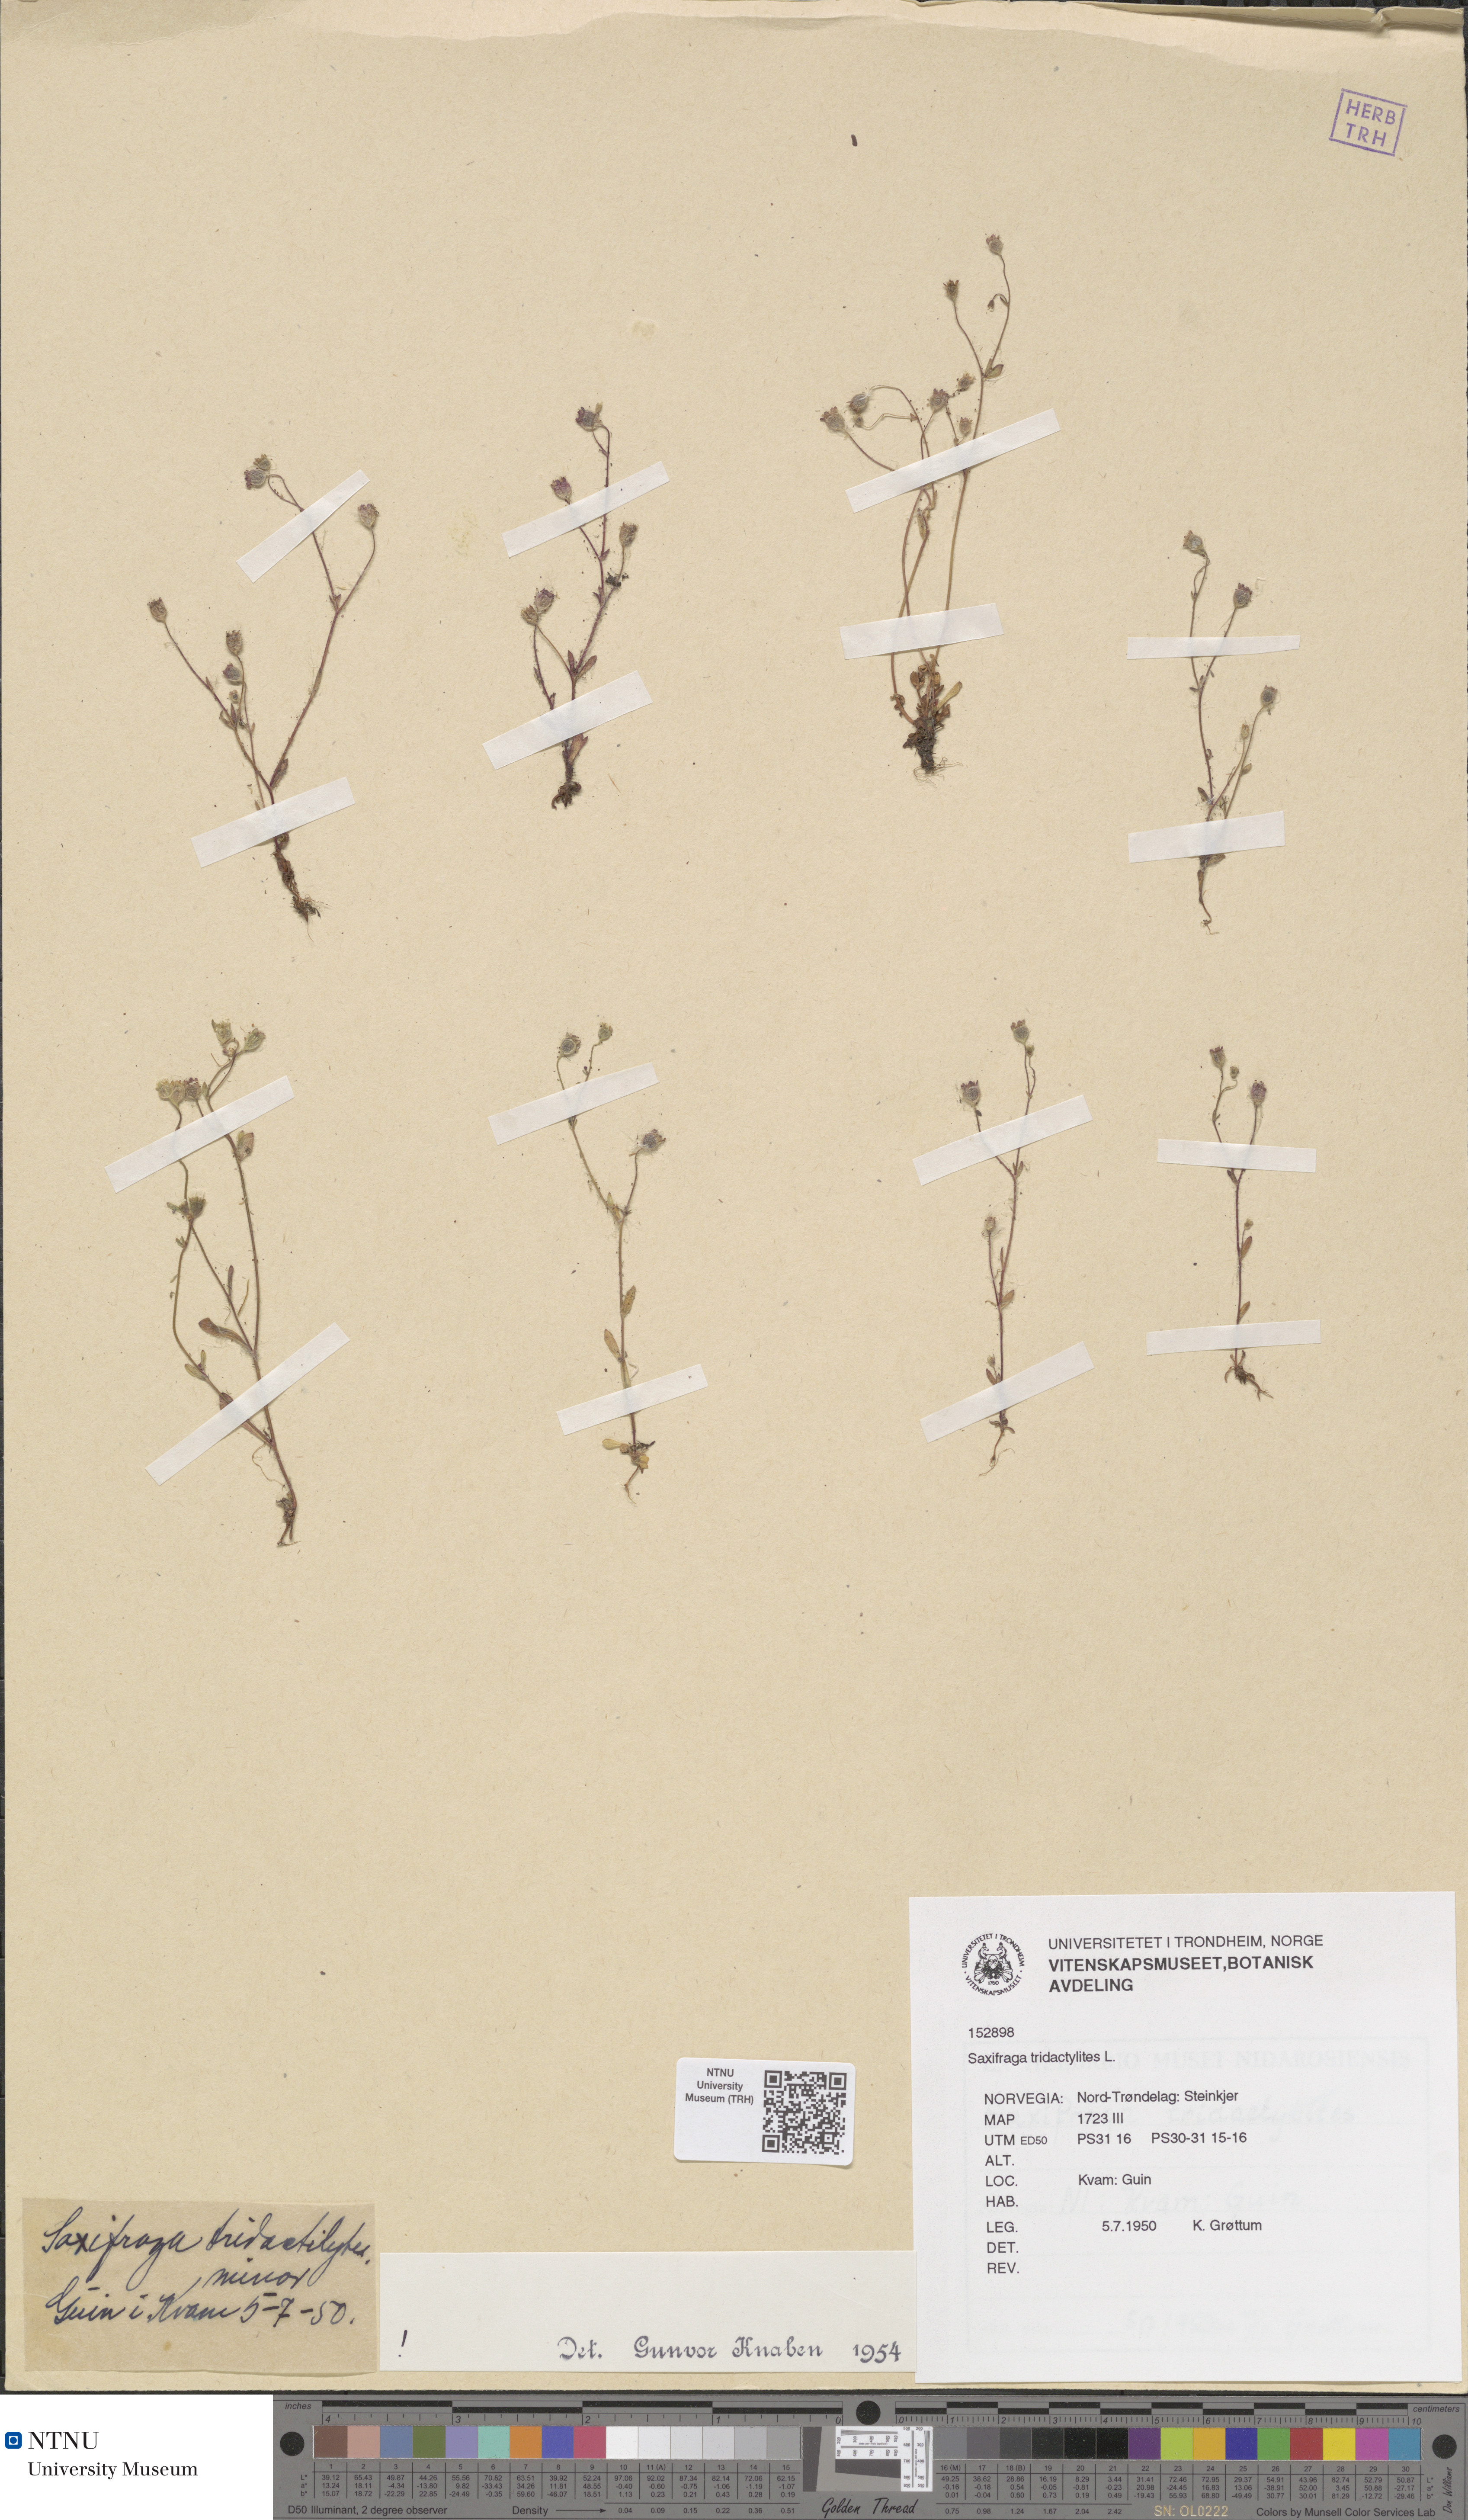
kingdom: Plantae
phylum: Tracheophyta
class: Magnoliopsida
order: Saxifragales
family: Saxifragaceae
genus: Saxifraga
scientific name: Saxifraga tridactylites
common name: Rue-leaved saxifrage
